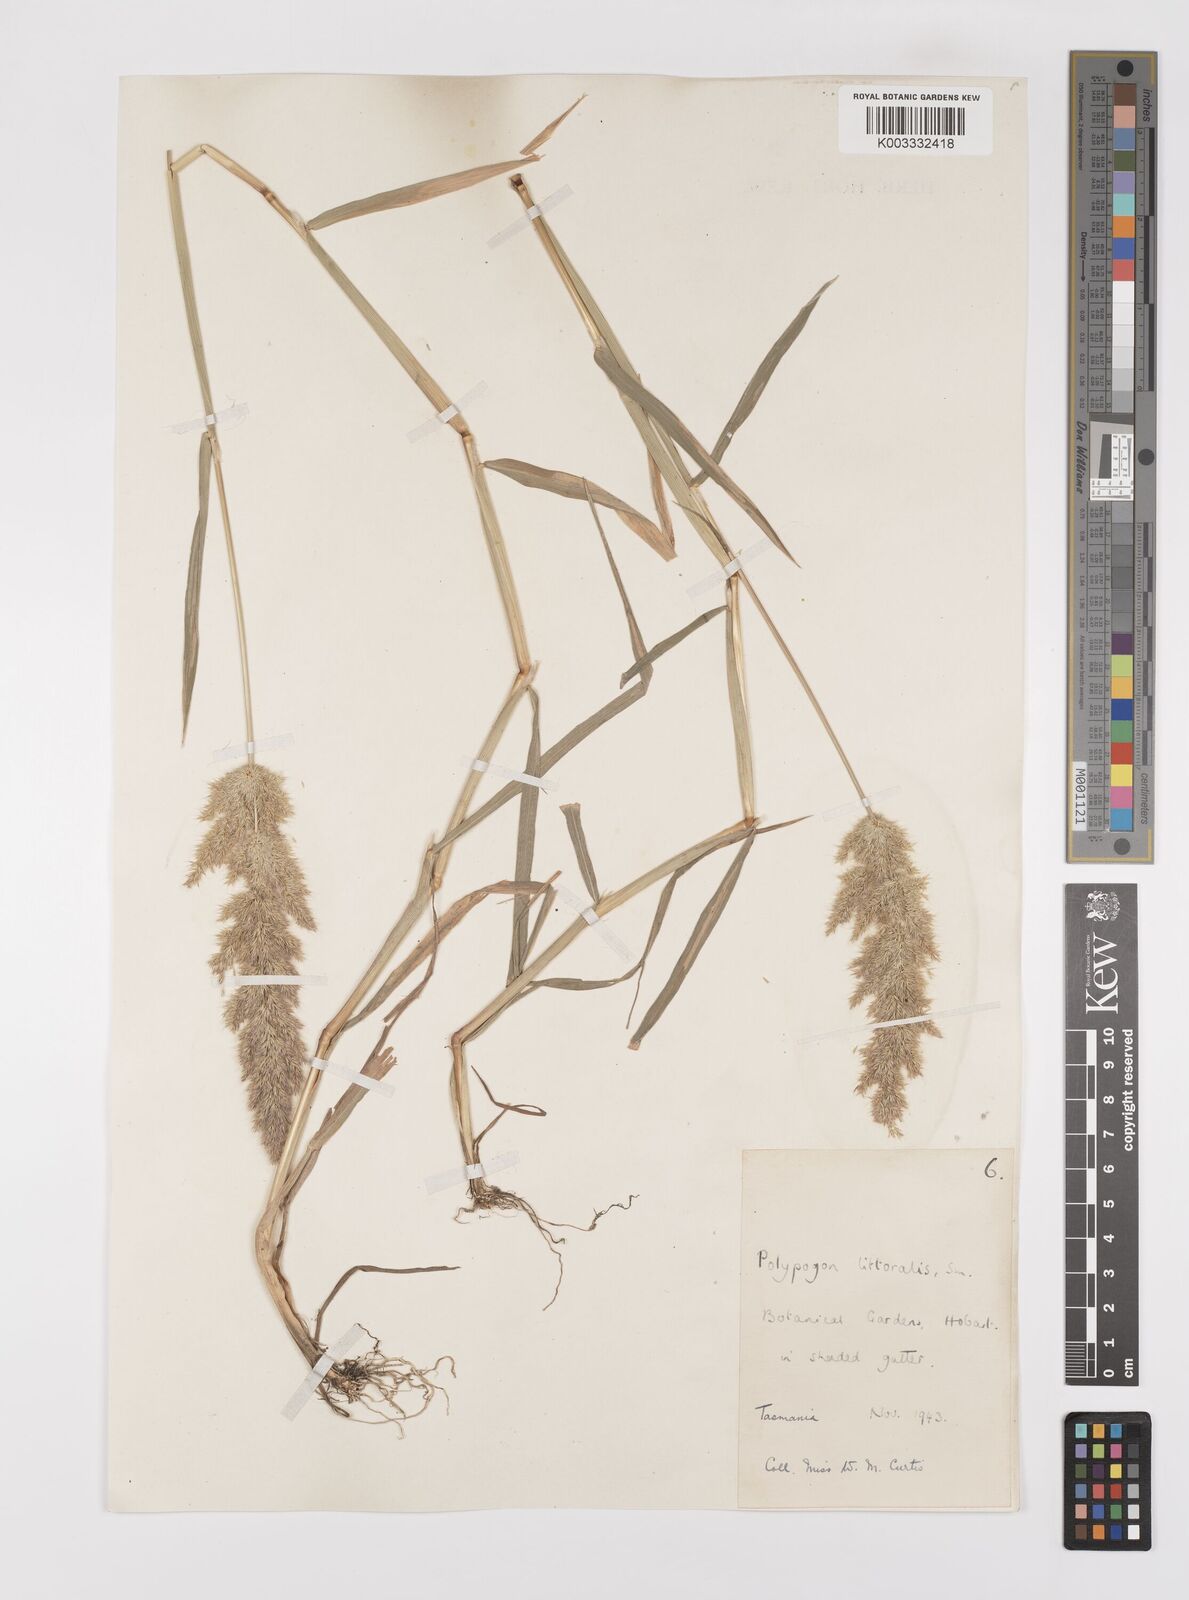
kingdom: Plantae
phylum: Tracheophyta
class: Liliopsida
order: Poales
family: Poaceae
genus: Polypogon
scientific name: Polypogon fugax
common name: Asia minor bluegrass
